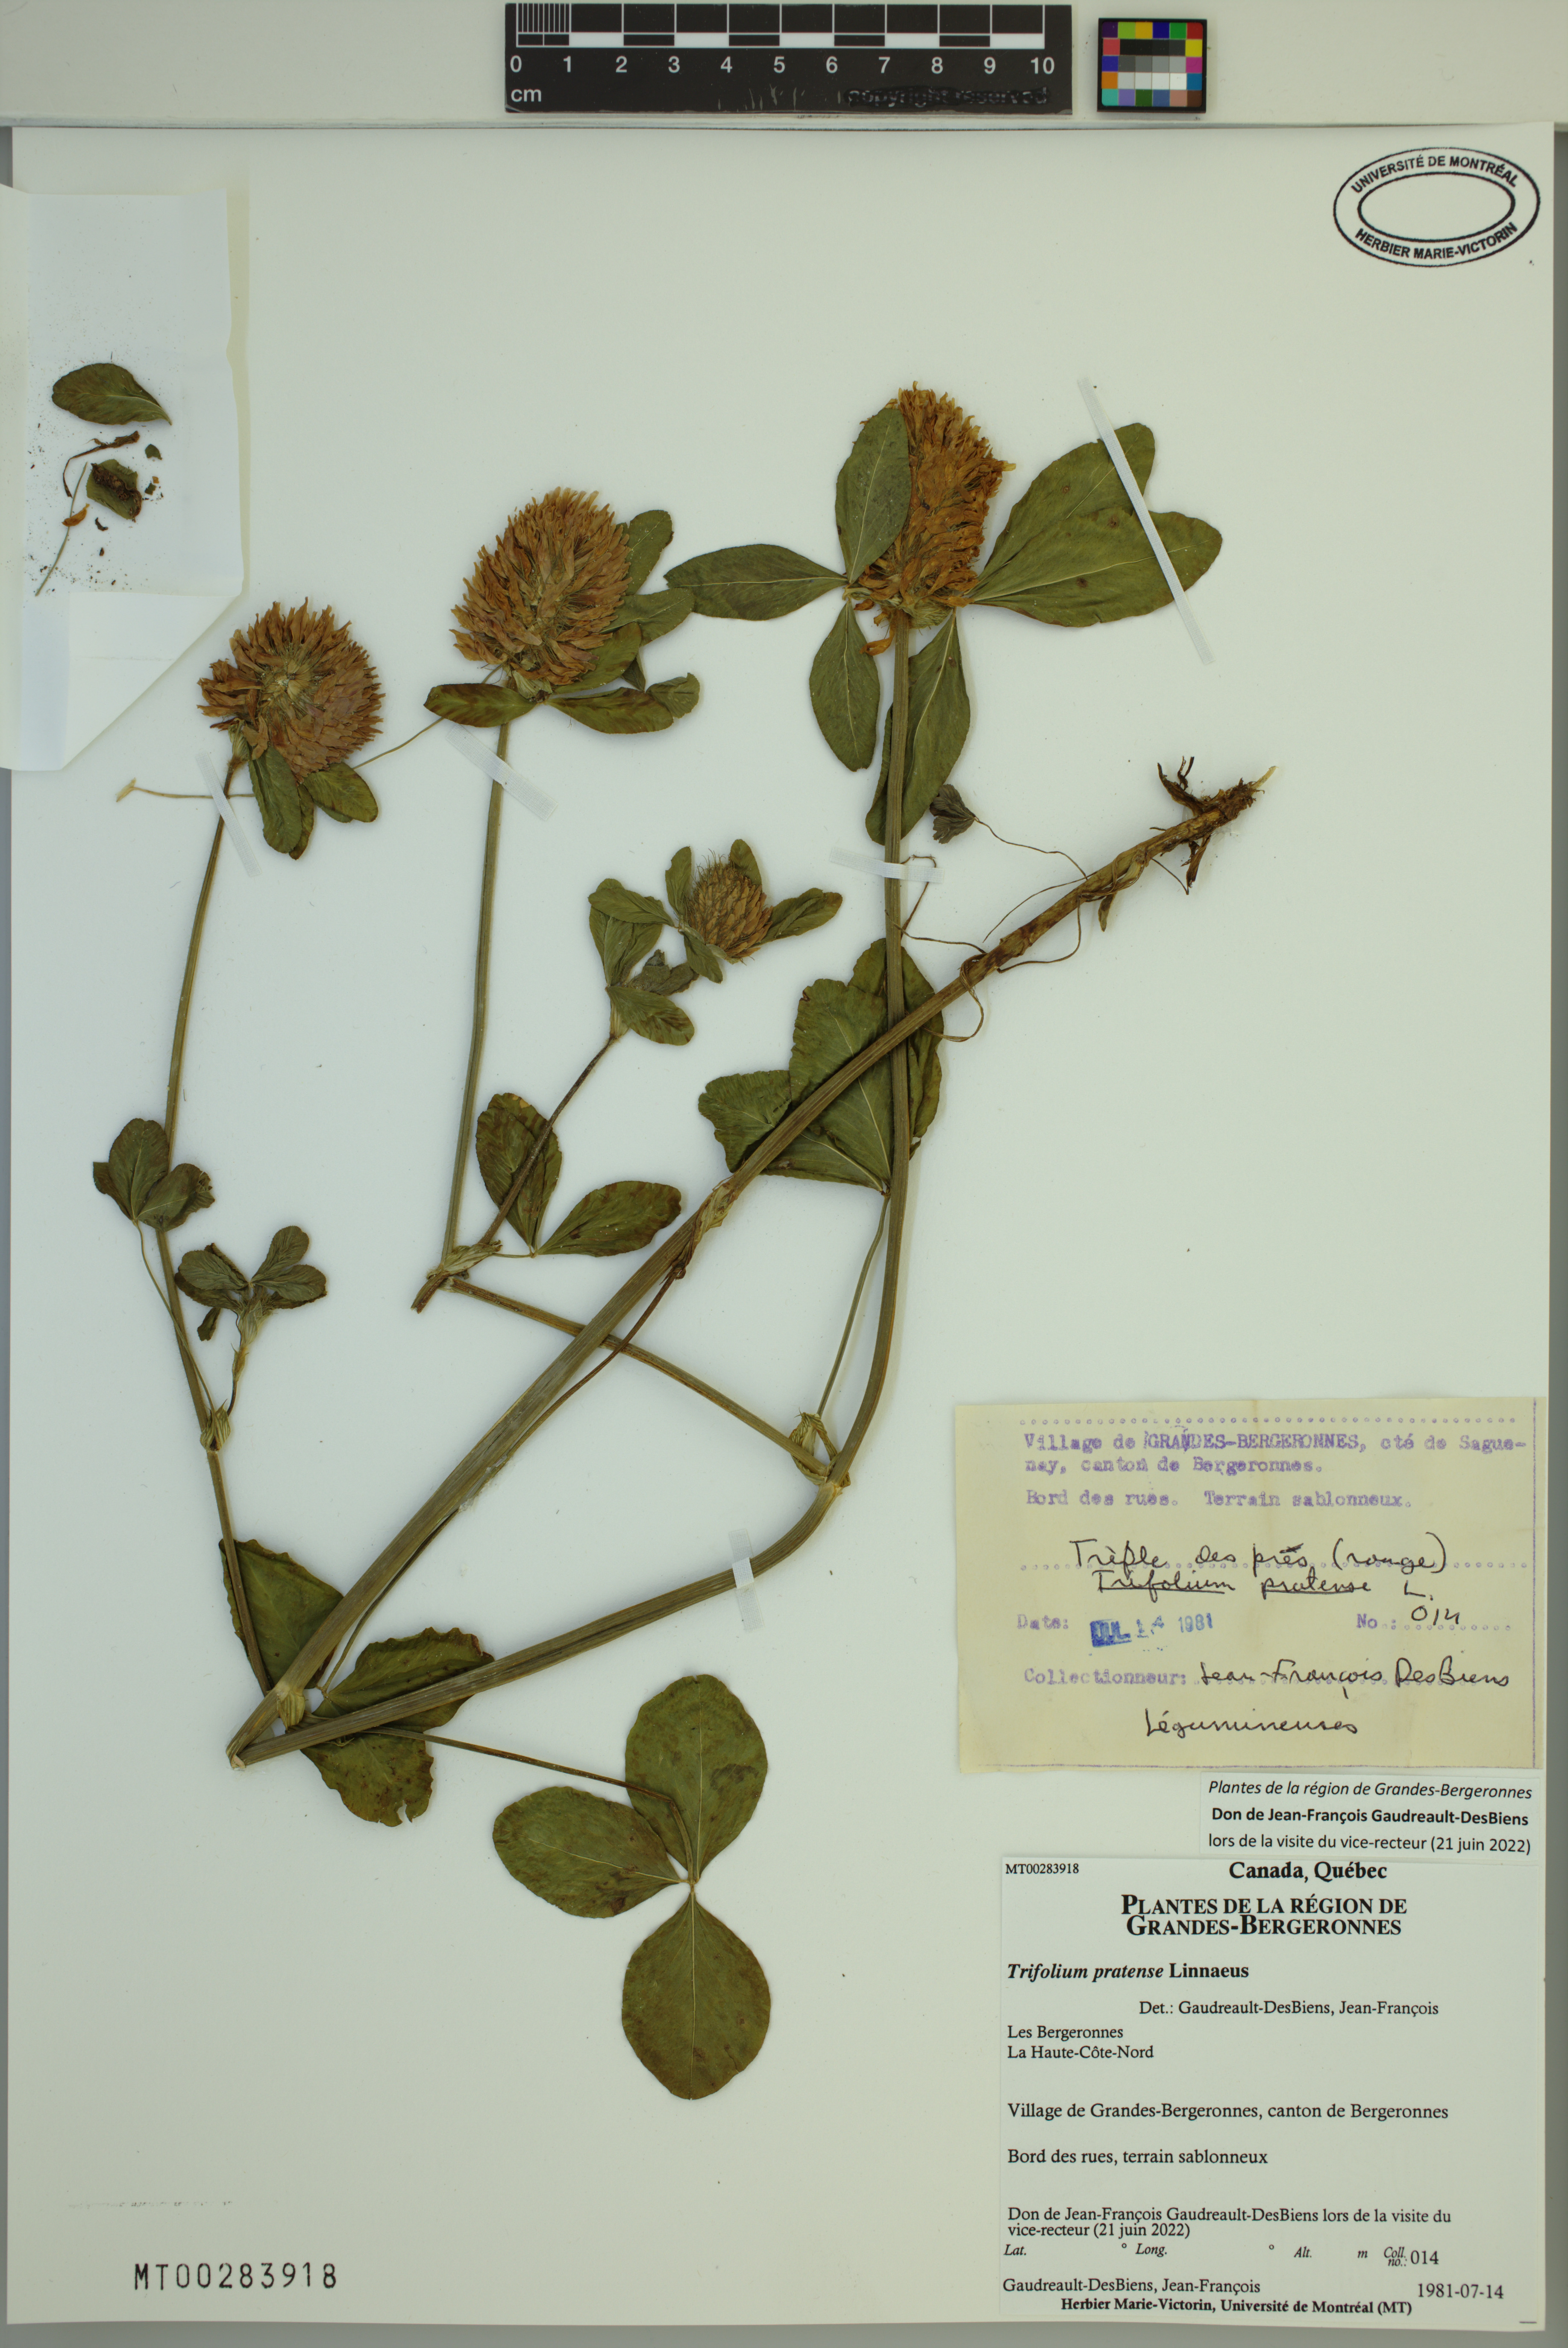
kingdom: Plantae
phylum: Tracheophyta
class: Magnoliopsida
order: Fabales
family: Fabaceae
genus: Trifolium
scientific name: Trifolium pratense
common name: Red clover
